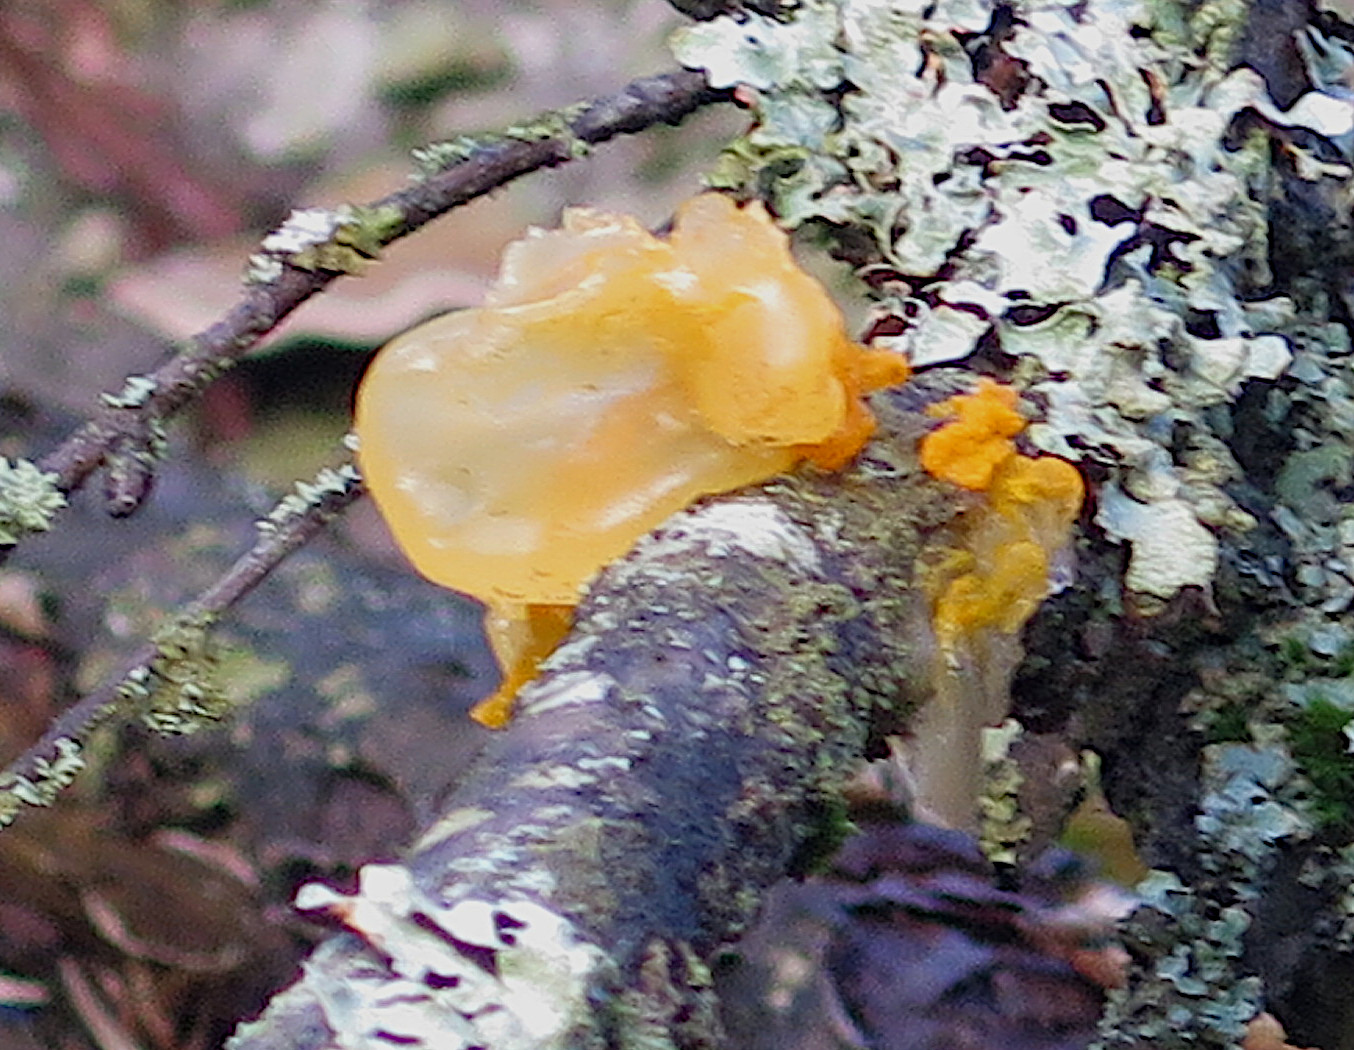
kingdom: Fungi
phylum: Basidiomycota
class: Tremellomycetes
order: Tremellales
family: Tremellaceae
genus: Tremella
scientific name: Tremella mesenterica
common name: gul bævresvamp
